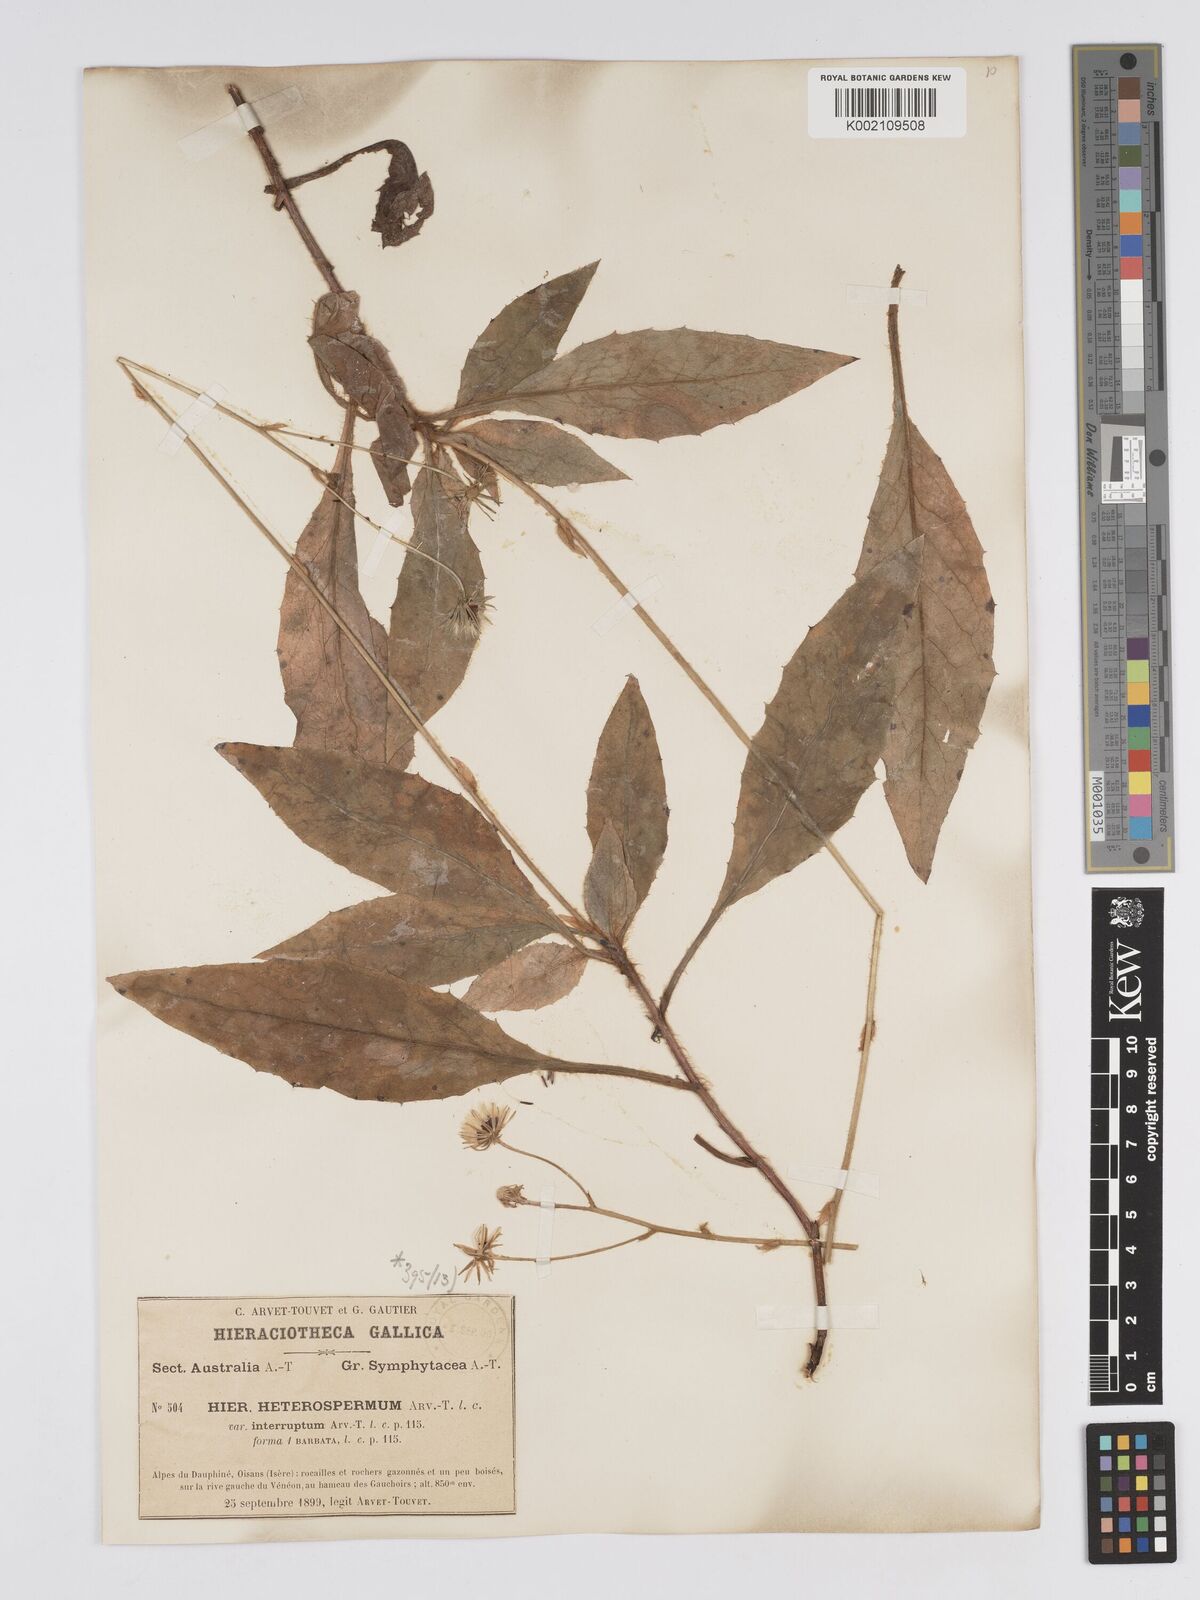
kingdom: Plantae
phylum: Tracheophyta
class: Magnoliopsida
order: Asterales
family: Asteraceae
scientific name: Asteraceae
